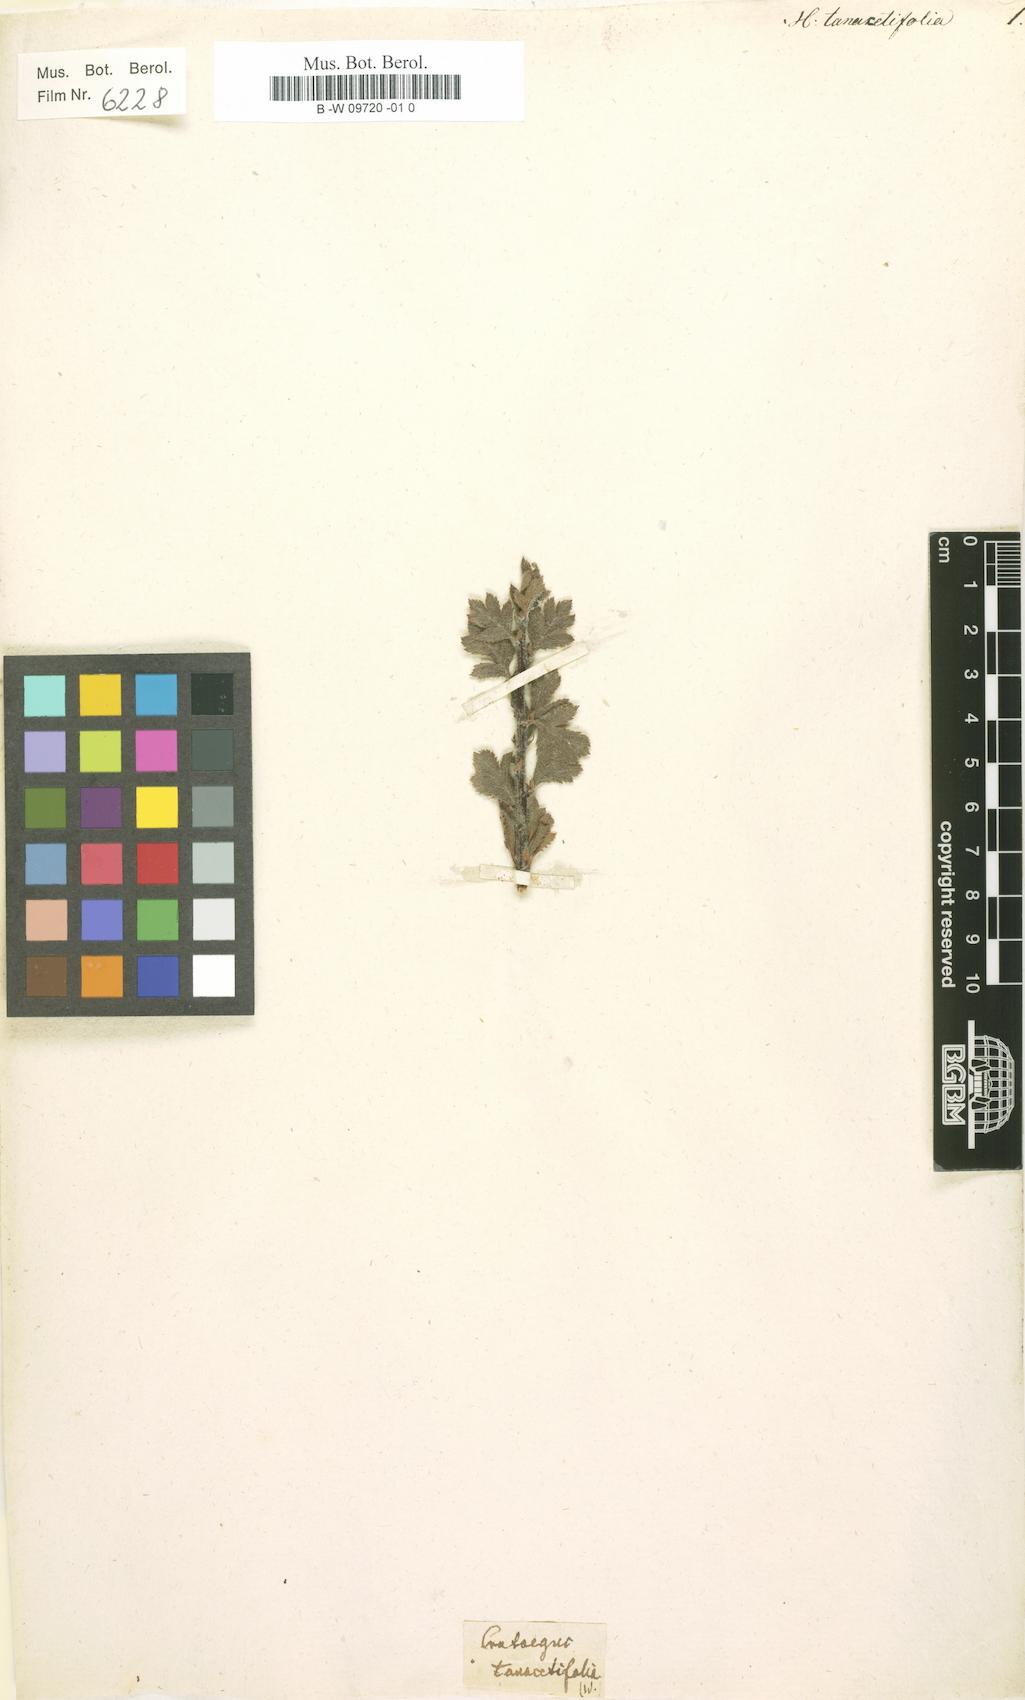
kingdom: Plantae
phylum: Tracheophyta
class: Magnoliopsida
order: Rosales
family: Rosaceae
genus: Crataegus
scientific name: Crataegus tanacetifolia
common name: Tansy-leaved thorn
